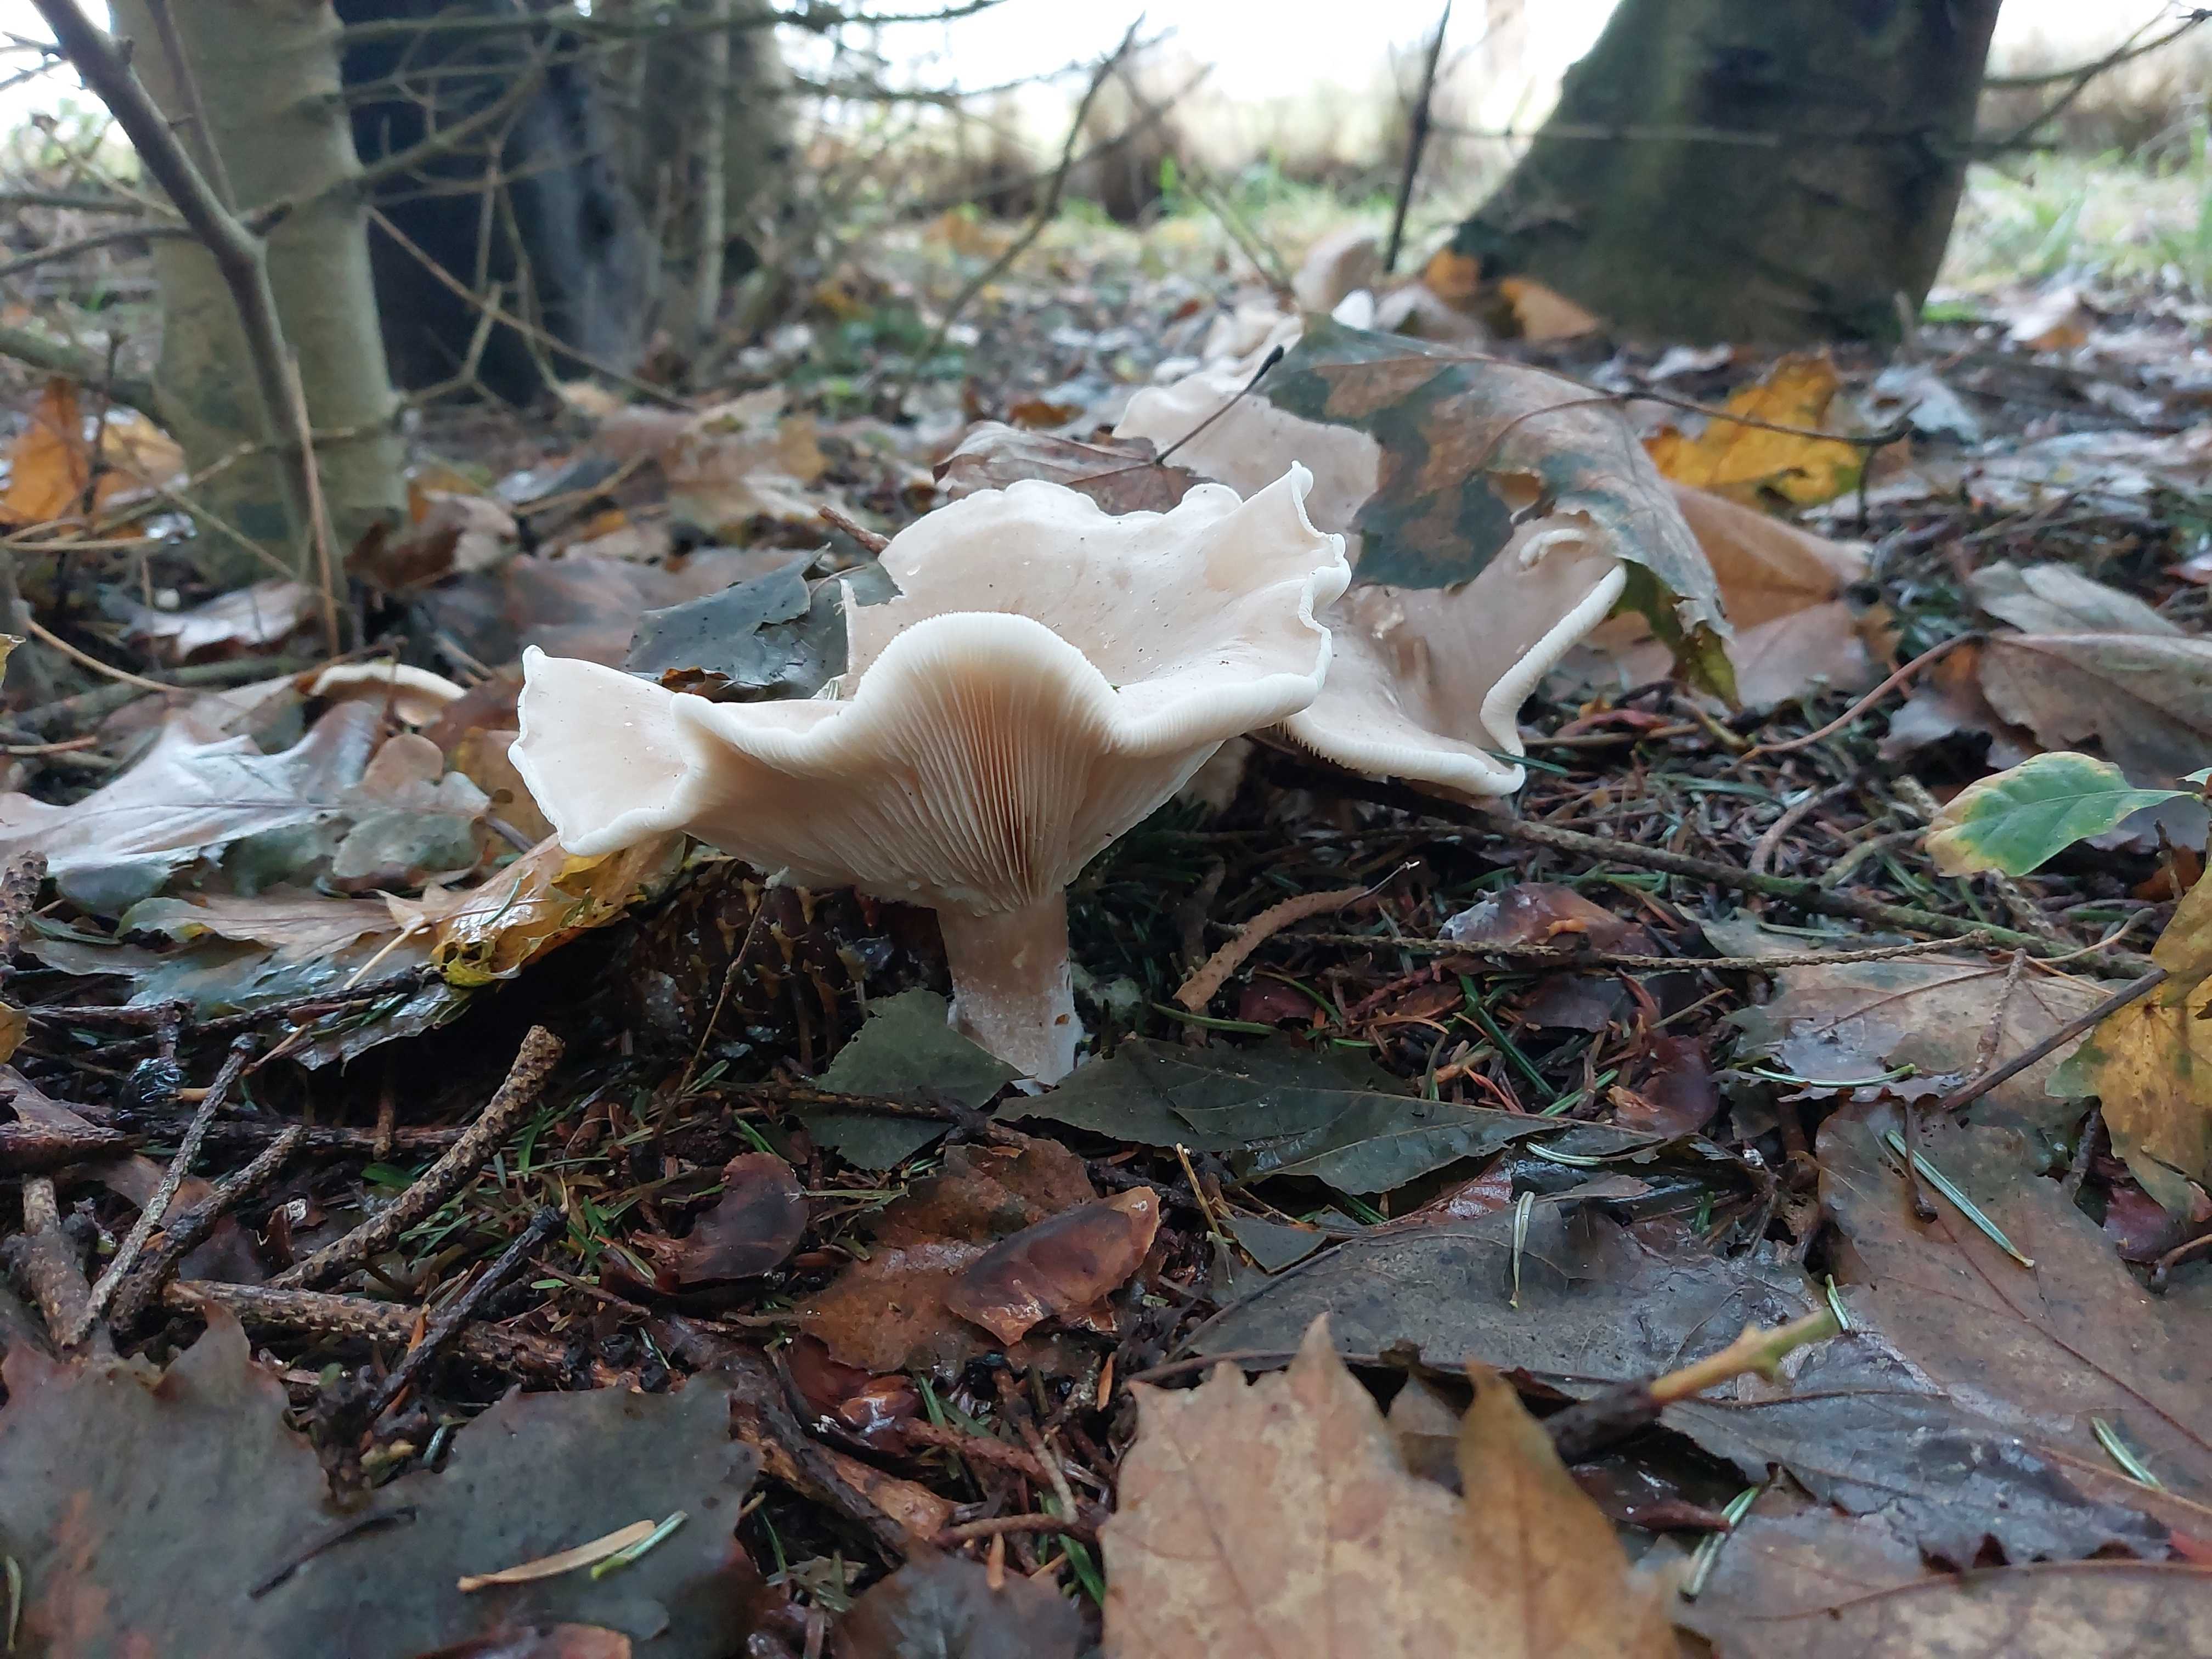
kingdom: Fungi
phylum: Basidiomycota
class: Agaricomycetes
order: Agaricales
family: Tricholomataceae
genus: Clitocybe
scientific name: Clitocybe nebularis
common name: tåge-tragthat
